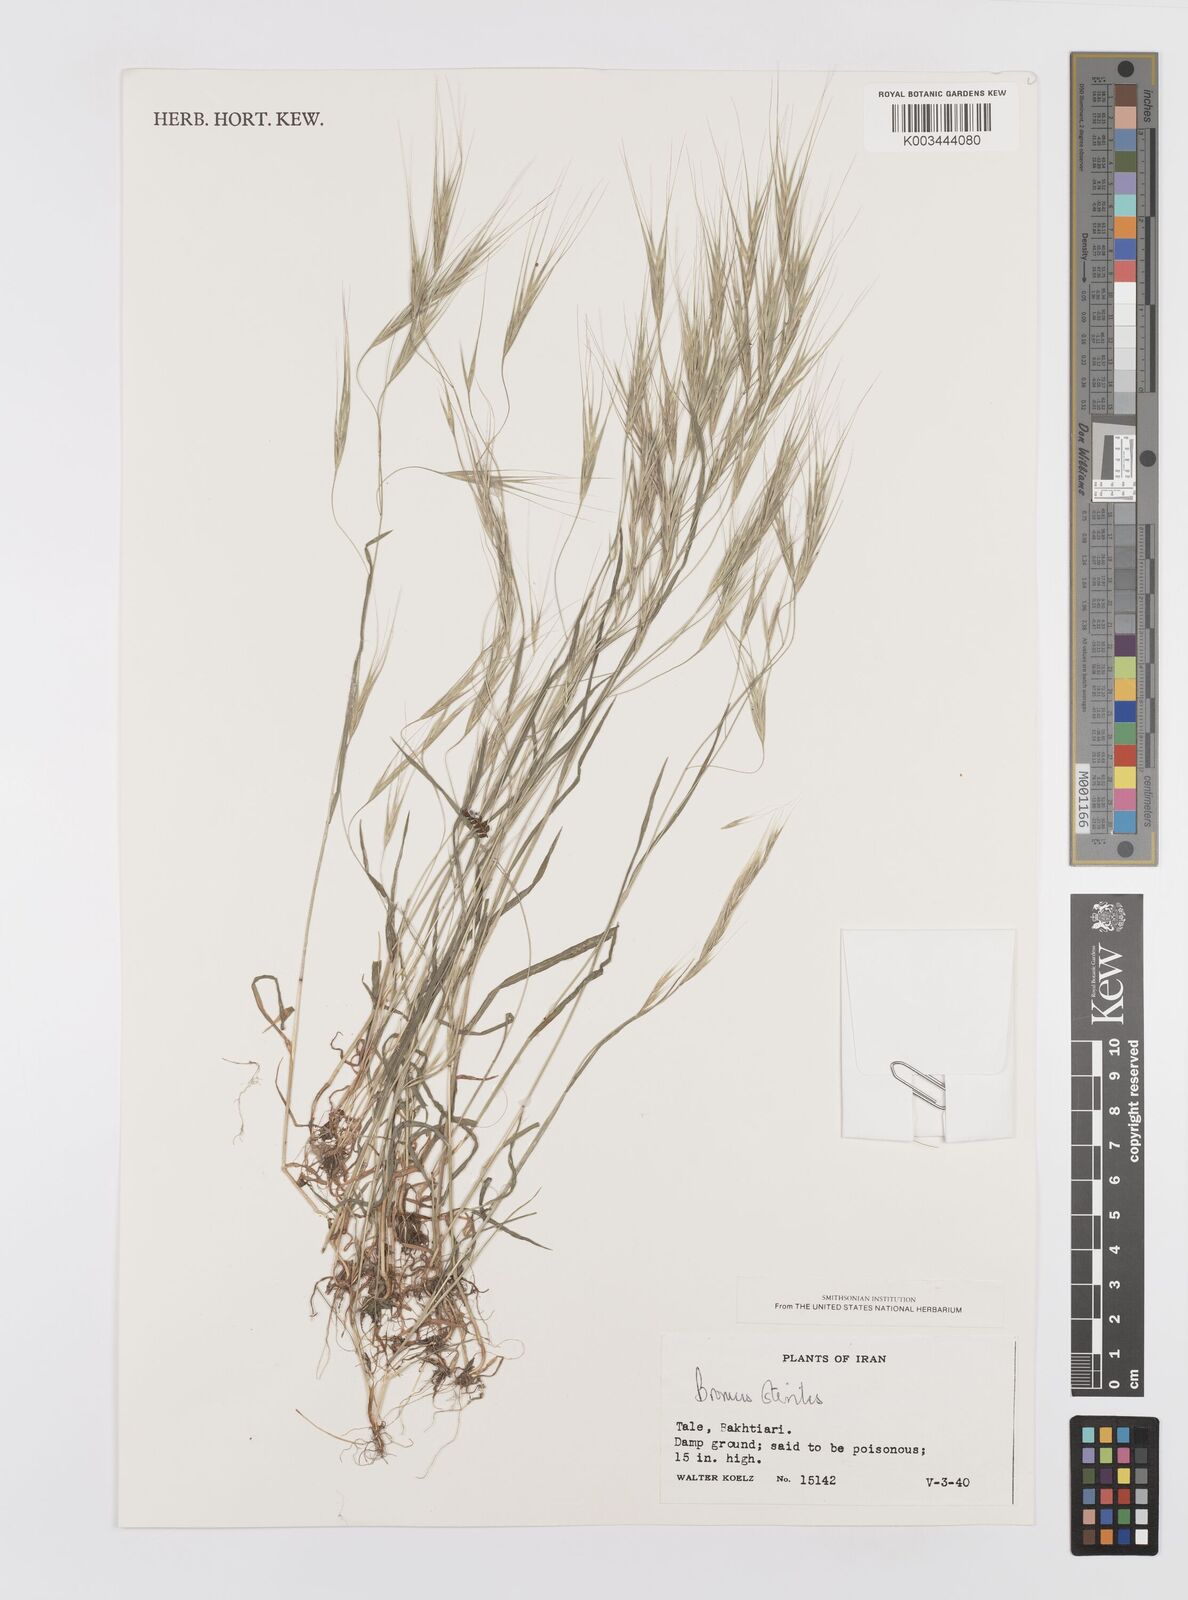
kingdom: Plantae
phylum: Tracheophyta
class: Liliopsida
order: Poales
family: Poaceae
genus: Bromus
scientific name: Bromus sterilis
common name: Poverty brome
